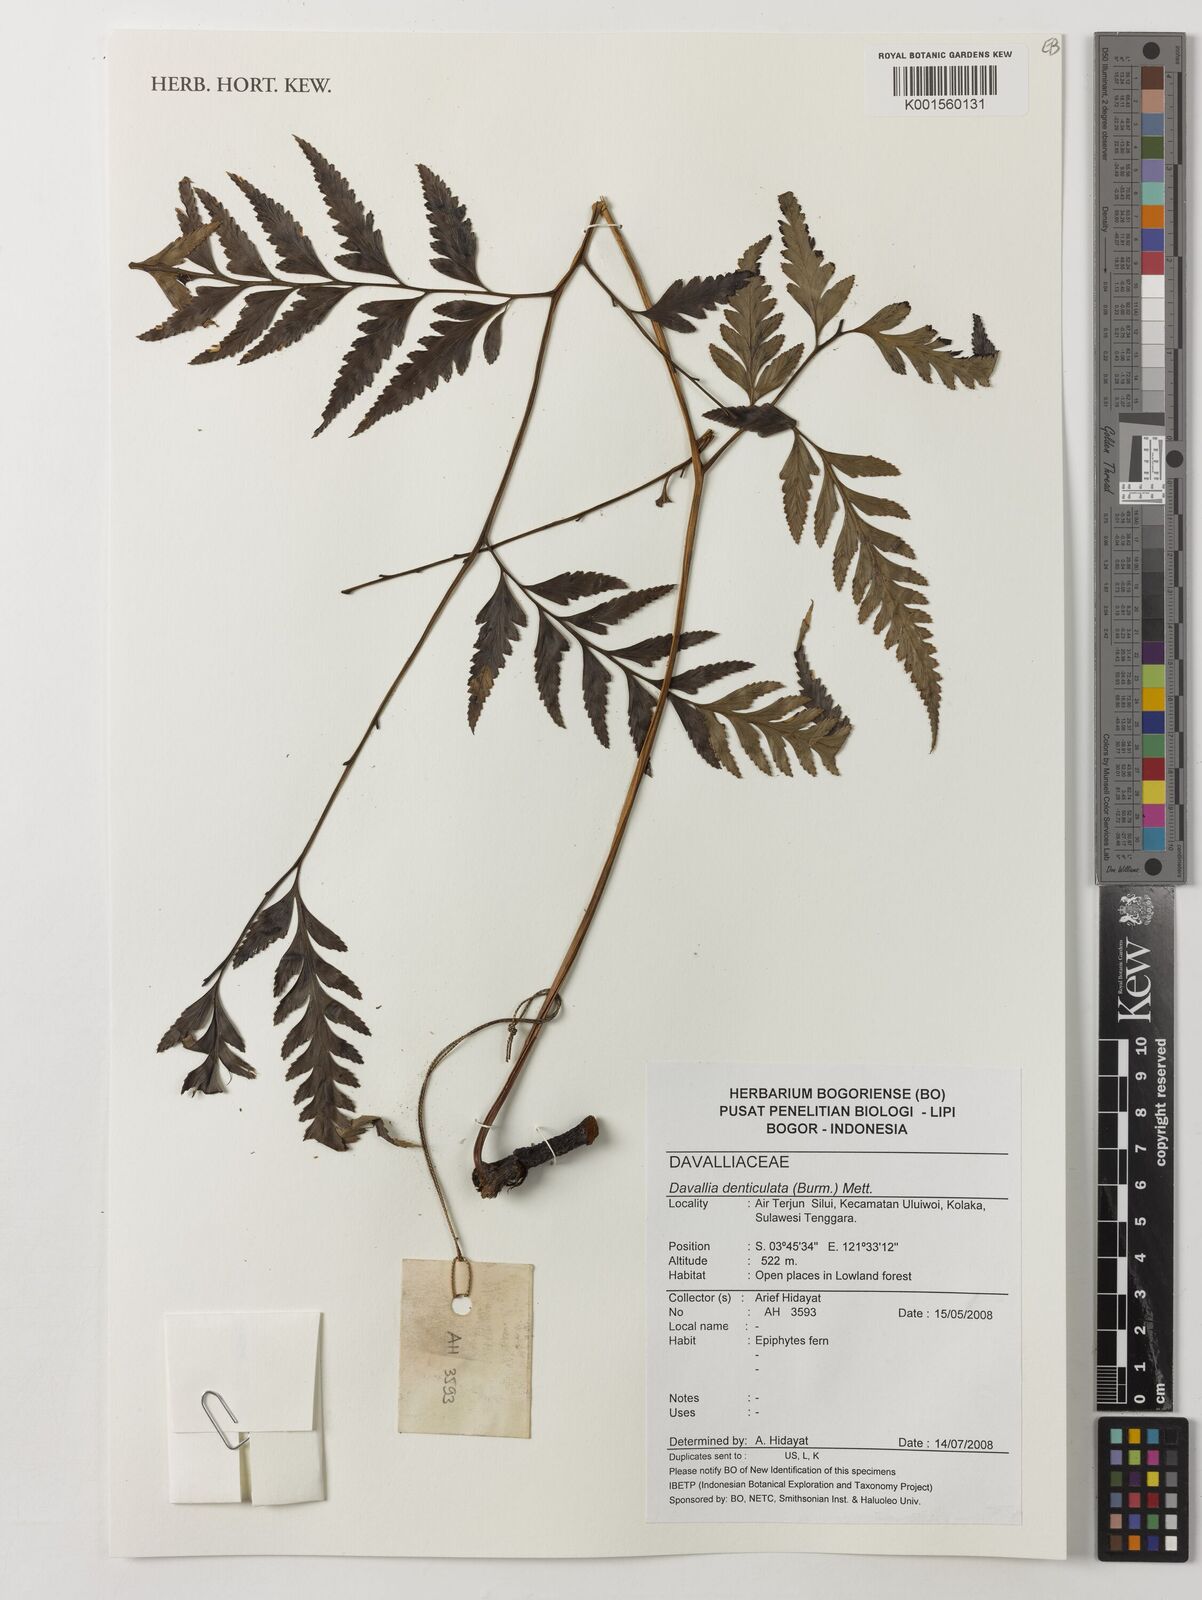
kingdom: Plantae
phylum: Tracheophyta
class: Polypodiopsida
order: Polypodiales
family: Davalliaceae
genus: Davallia
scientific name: Davallia denticulata
